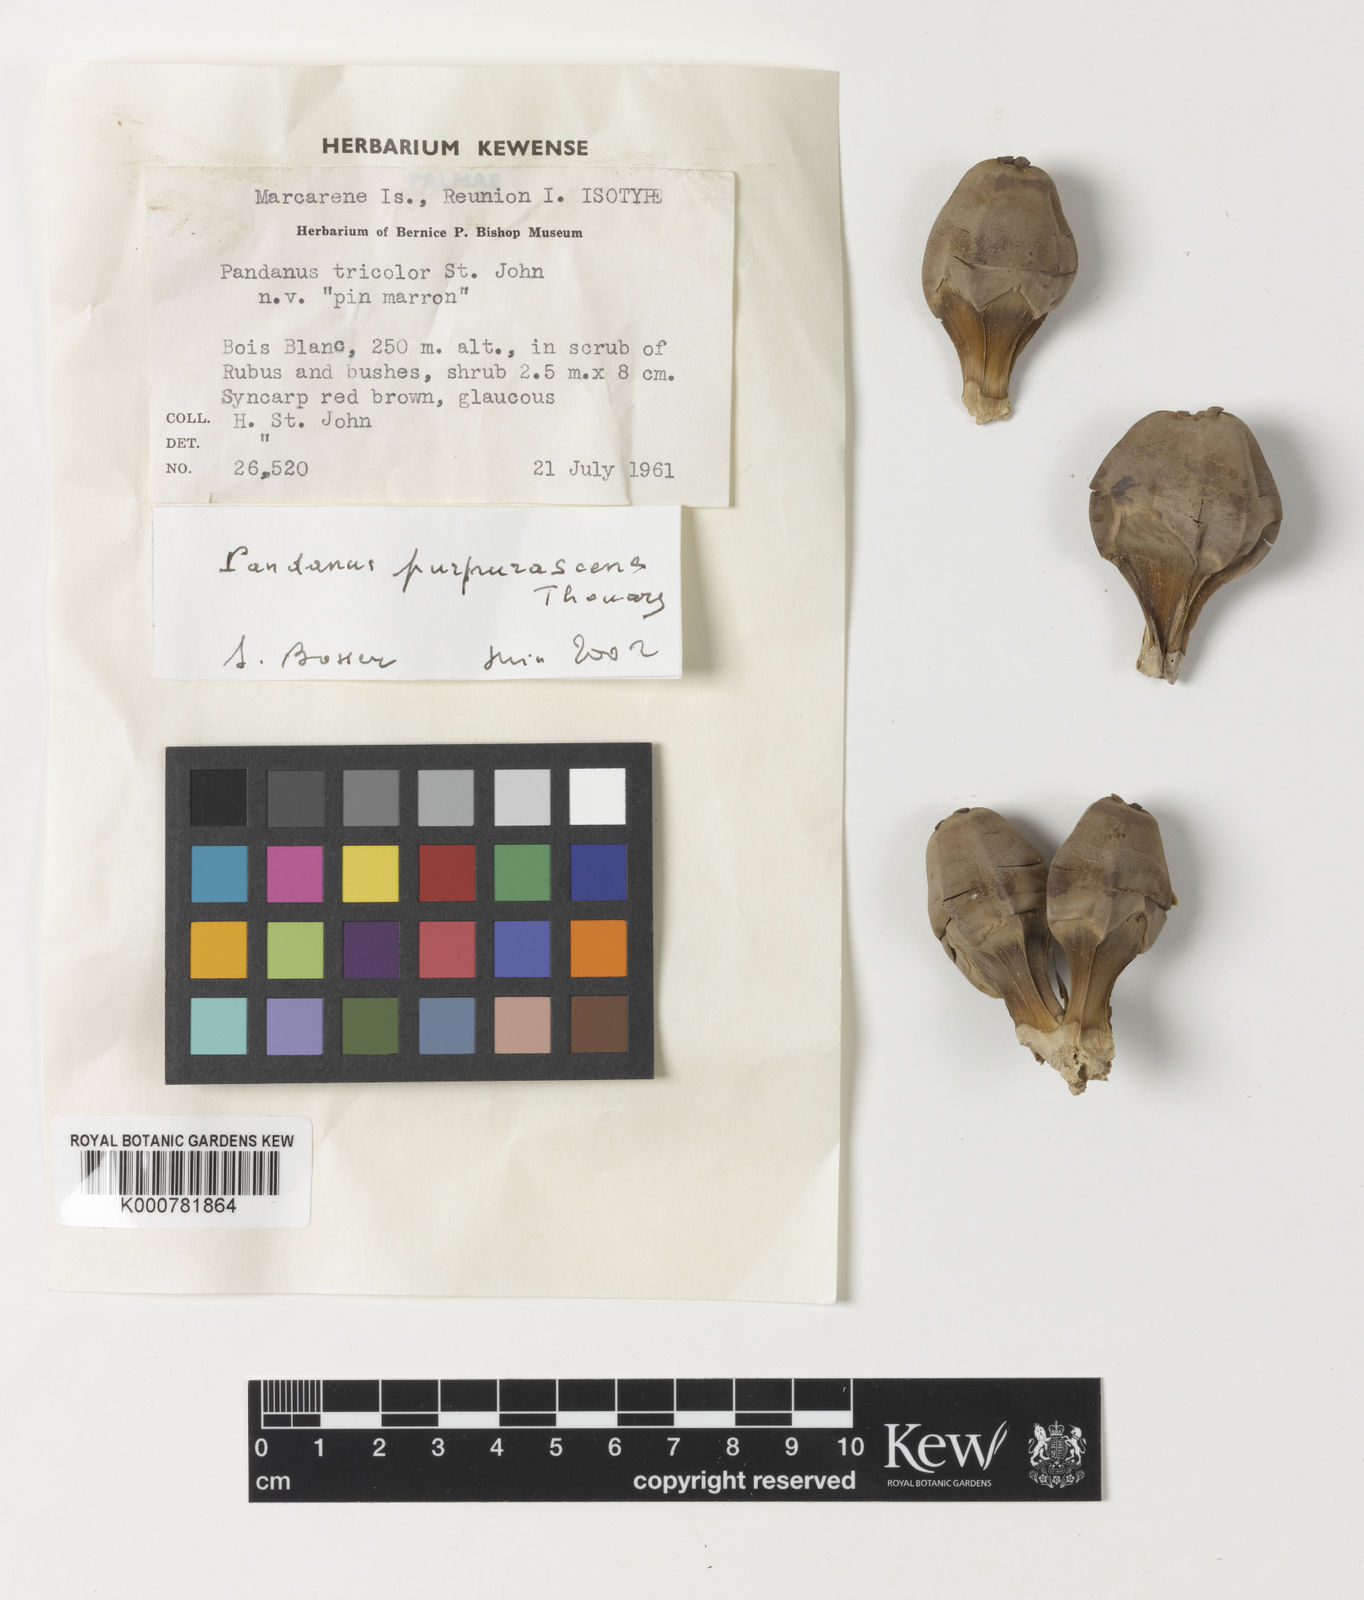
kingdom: Plantae
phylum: Tracheophyta
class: Liliopsida
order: Pandanales
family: Pandanaceae
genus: Pandanus
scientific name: Pandanus
